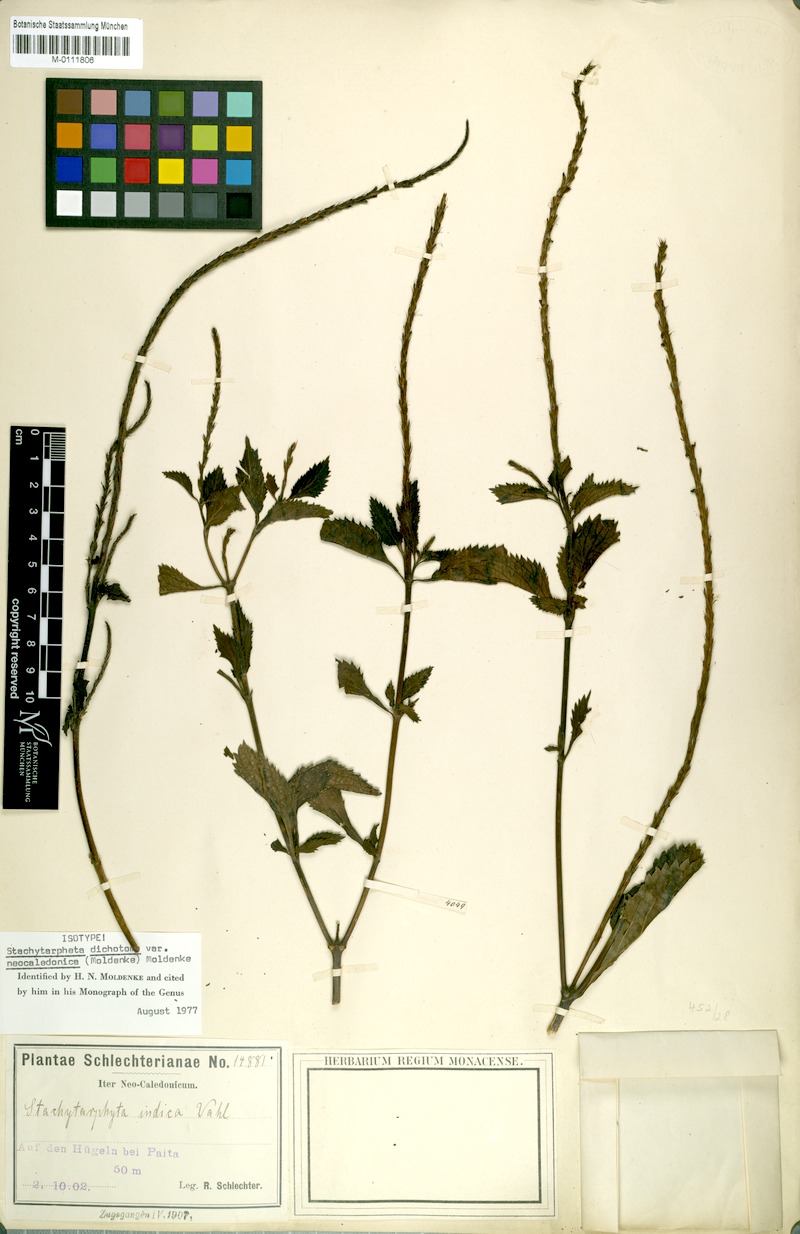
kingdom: Plantae
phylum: Tracheophyta
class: Magnoliopsida
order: Lamiales
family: Verbenaceae
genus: Stachytarpheta
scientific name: Stachytarpheta cayennensis
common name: Cayenne porterweed
